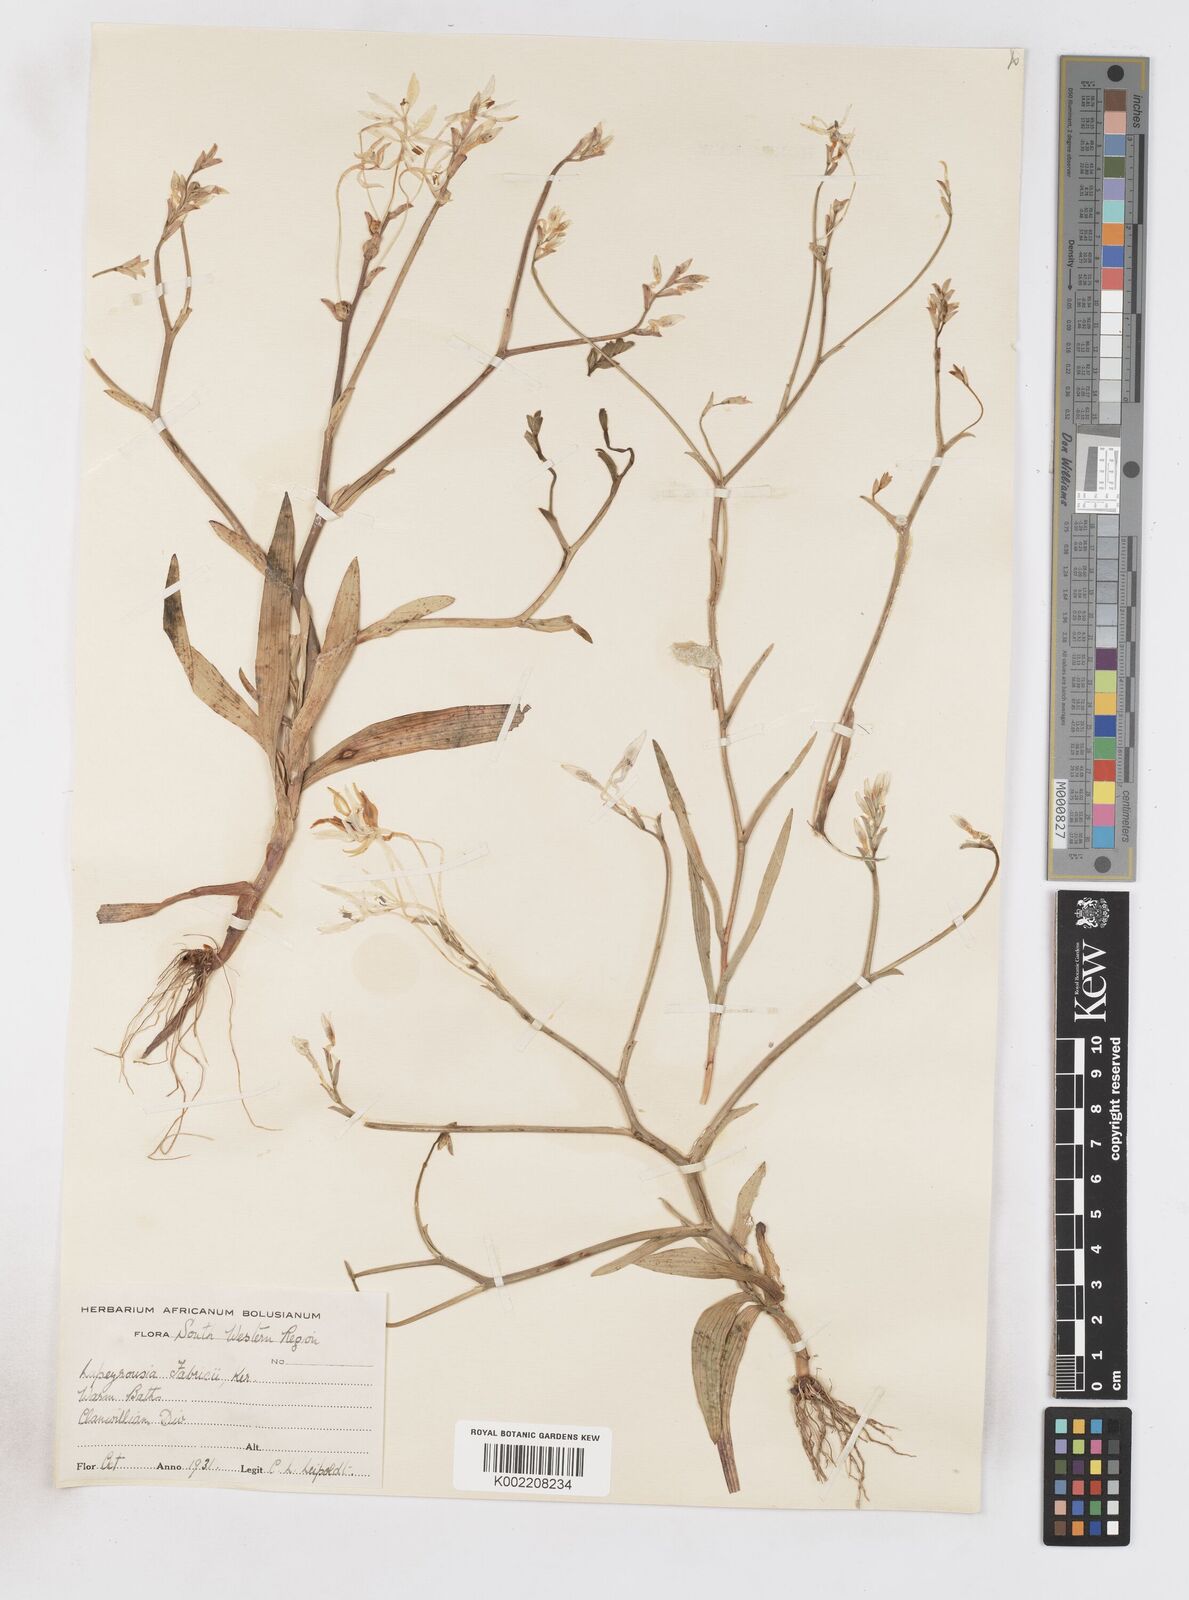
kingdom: Plantae
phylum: Tracheophyta
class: Liliopsida
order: Asparagales
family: Iridaceae
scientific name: Iridaceae
